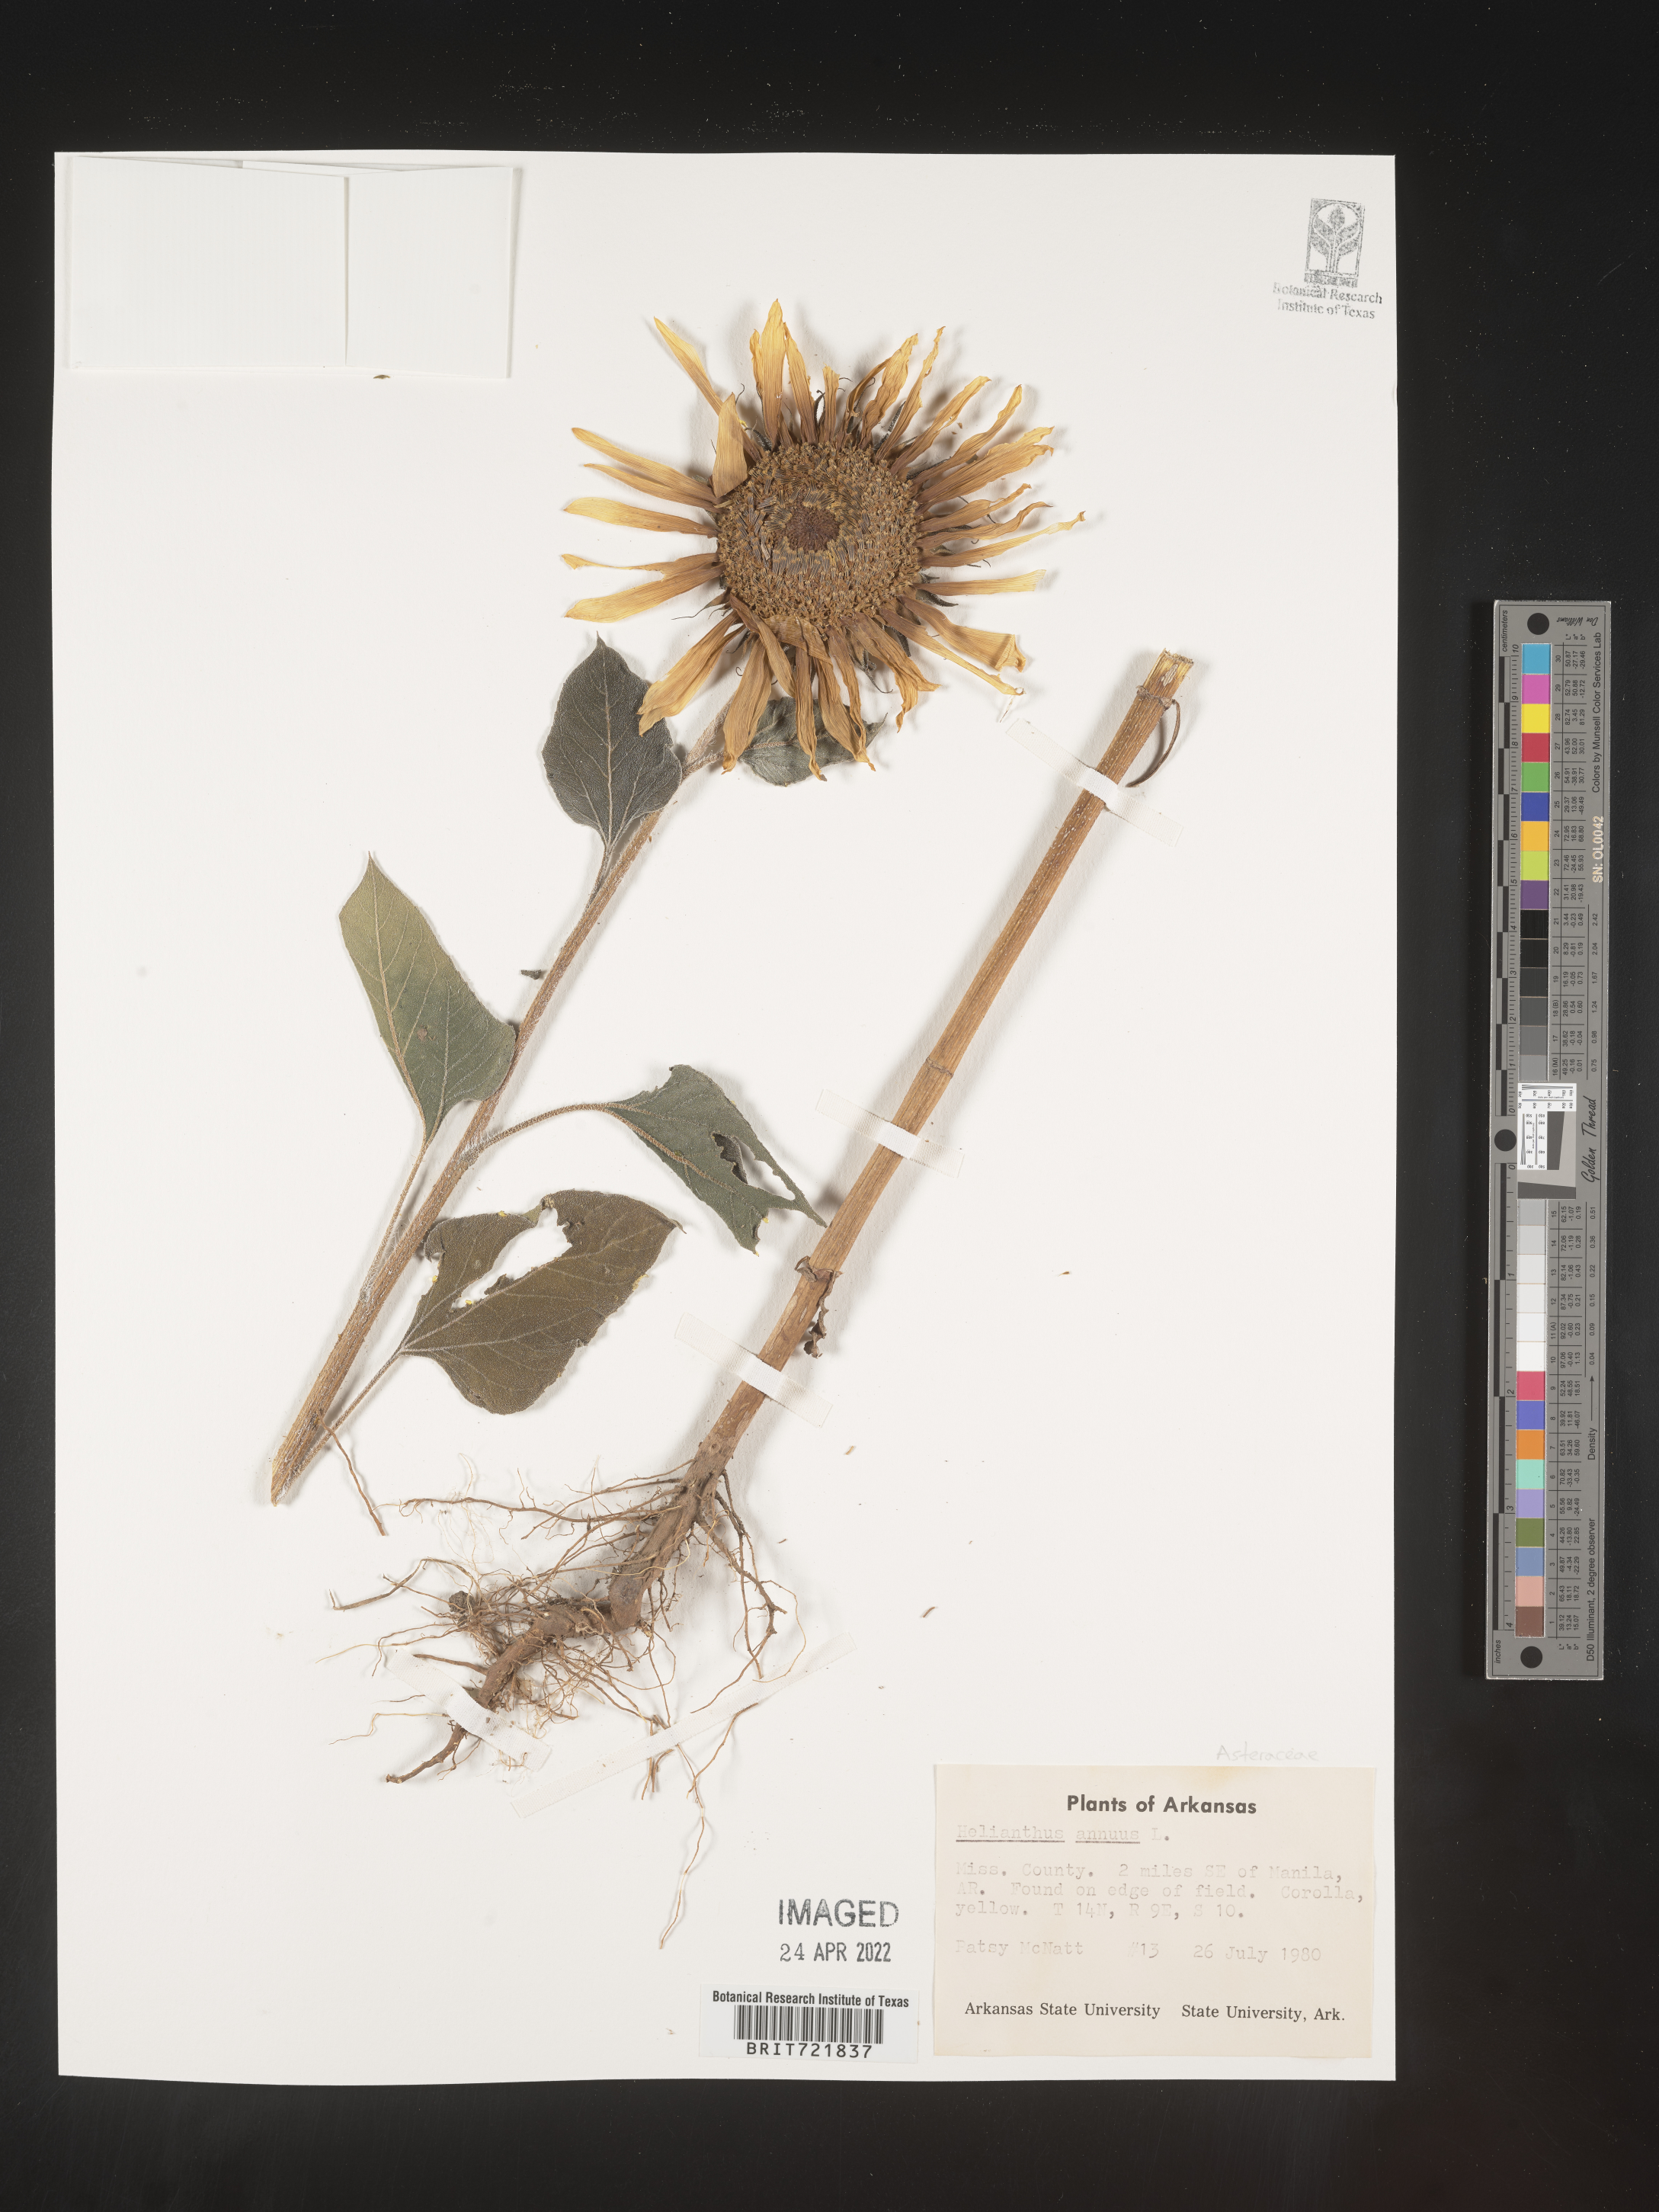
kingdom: Plantae
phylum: Tracheophyta
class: Magnoliopsida
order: Asterales
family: Asteraceae
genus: Helianthus
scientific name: Helianthus annuus
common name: Sunflower
